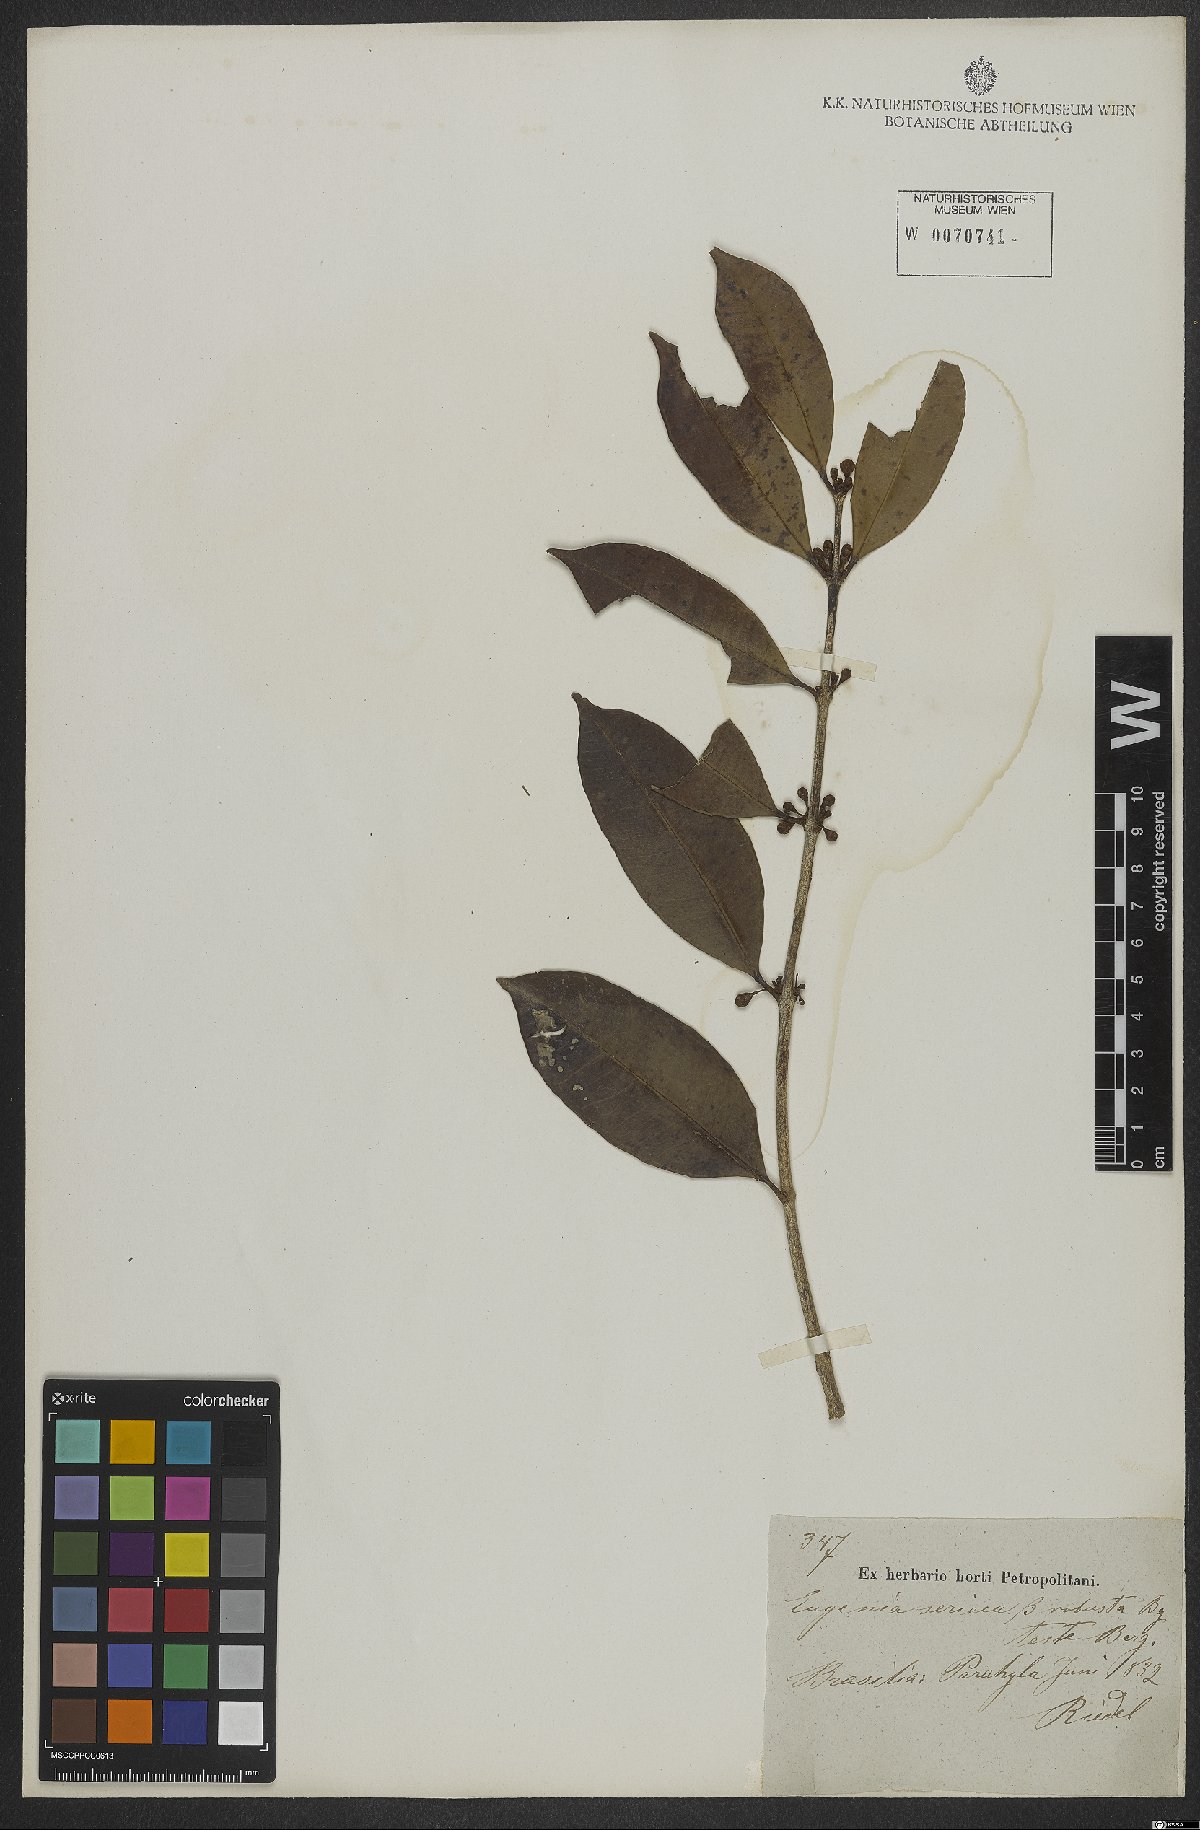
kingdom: Plantae
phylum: Tracheophyta
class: Magnoliopsida
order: Myrtales
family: Myrtaceae
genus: Eugenia
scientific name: Eugenia pisiformis
